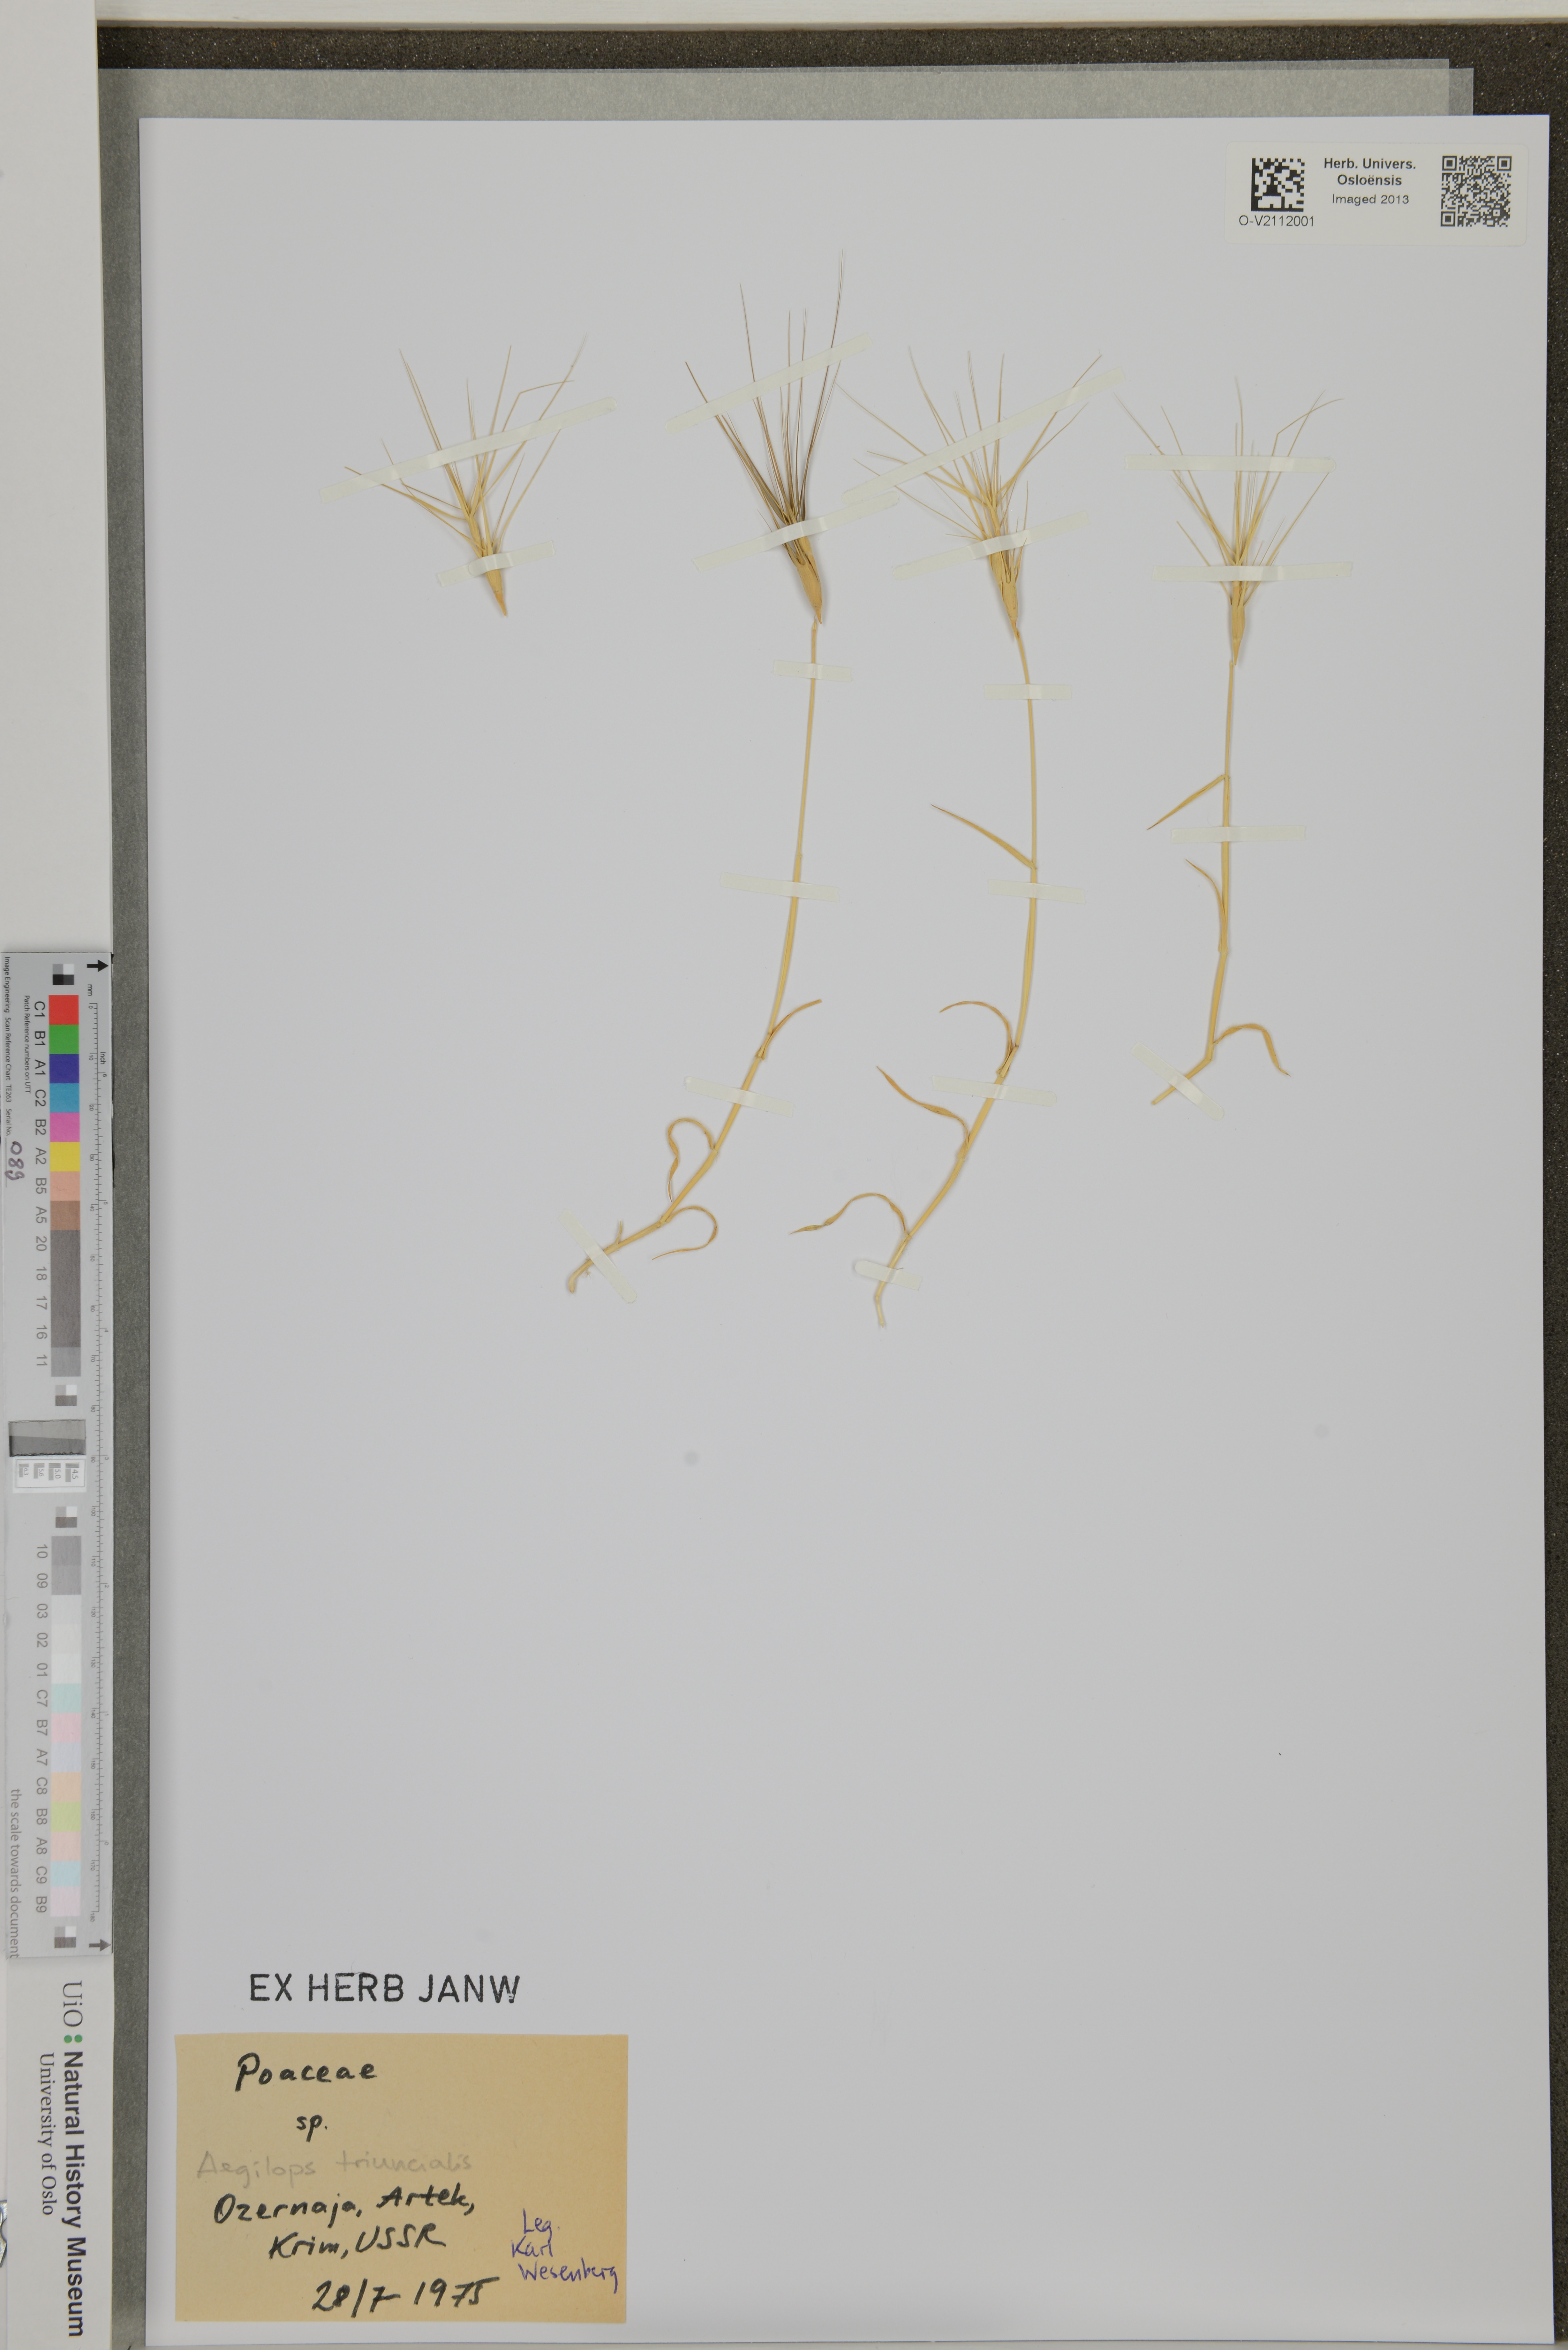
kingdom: Plantae
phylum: Tracheophyta
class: Liliopsida
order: Poales
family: Poaceae
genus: Aegilops
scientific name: Aegilops triuncialis
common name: Barb goat grass
